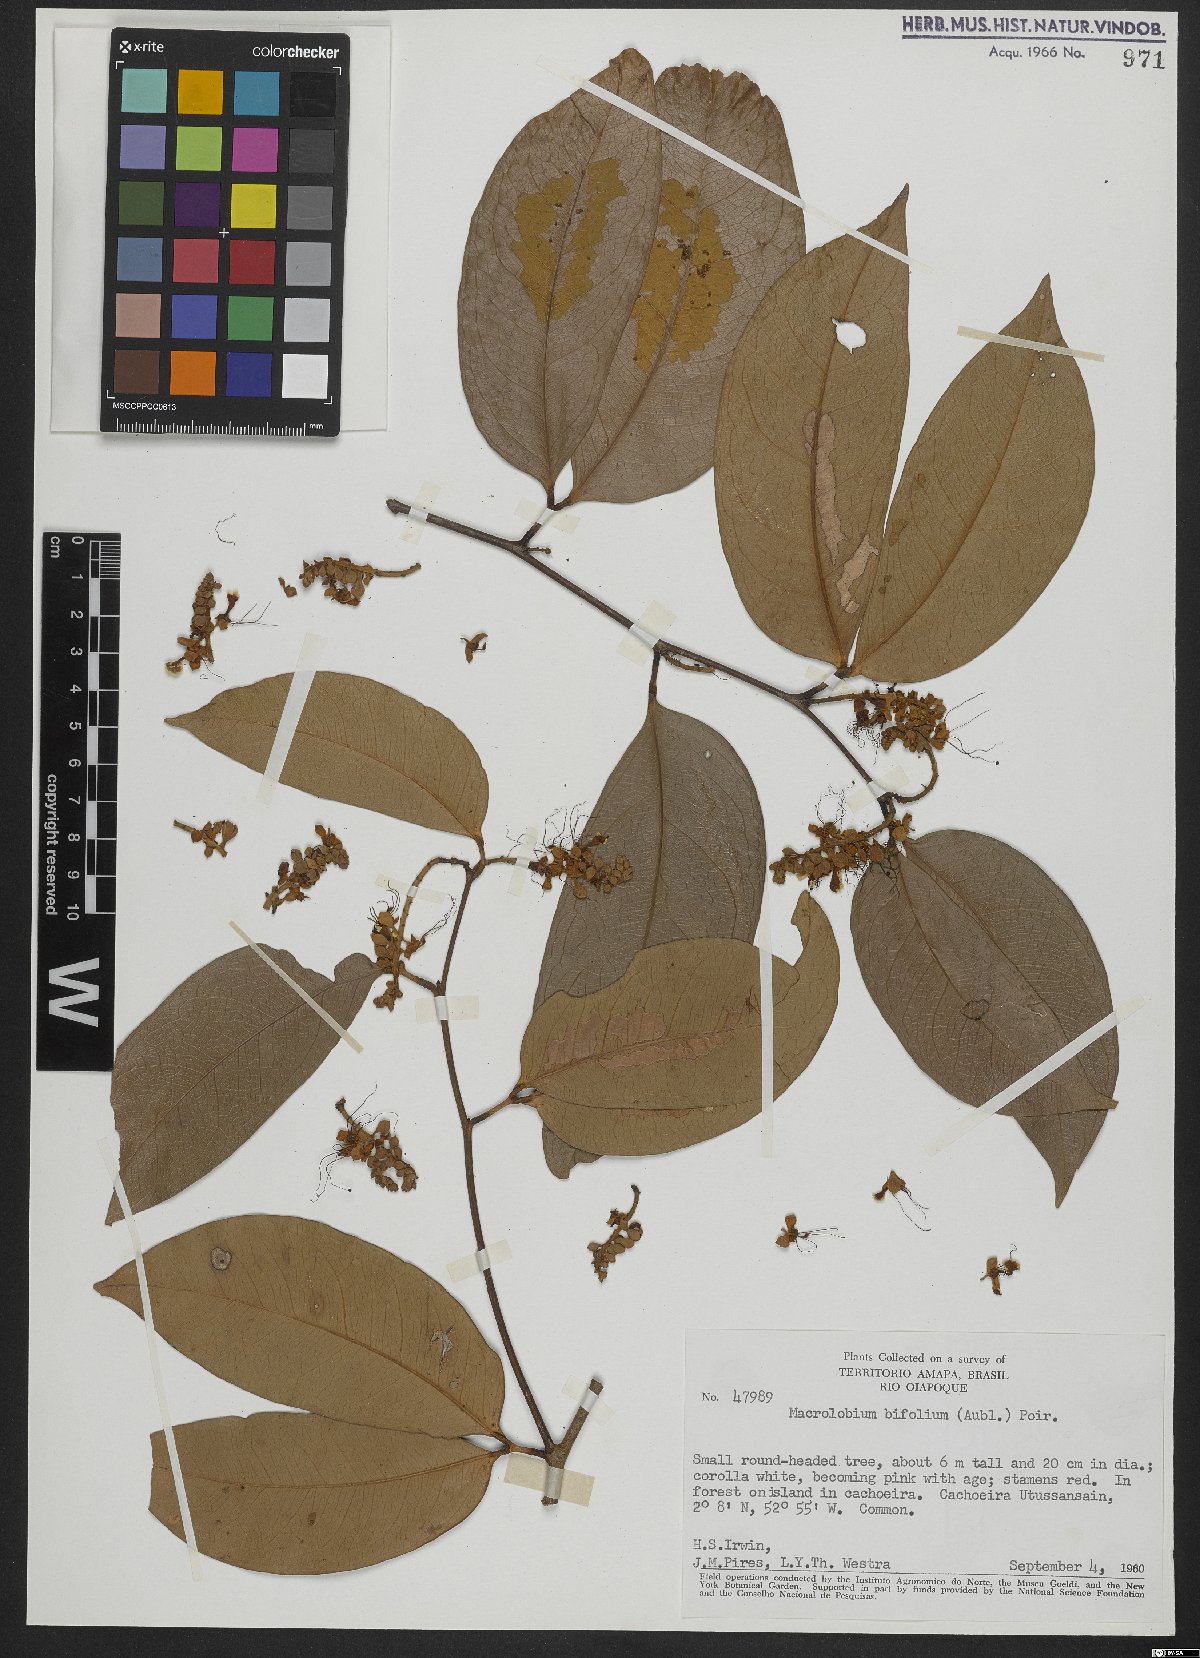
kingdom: Plantae
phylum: Tracheophyta
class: Magnoliopsida
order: Fabales
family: Fabaceae
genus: Macrolobium
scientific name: Macrolobium bifolium
